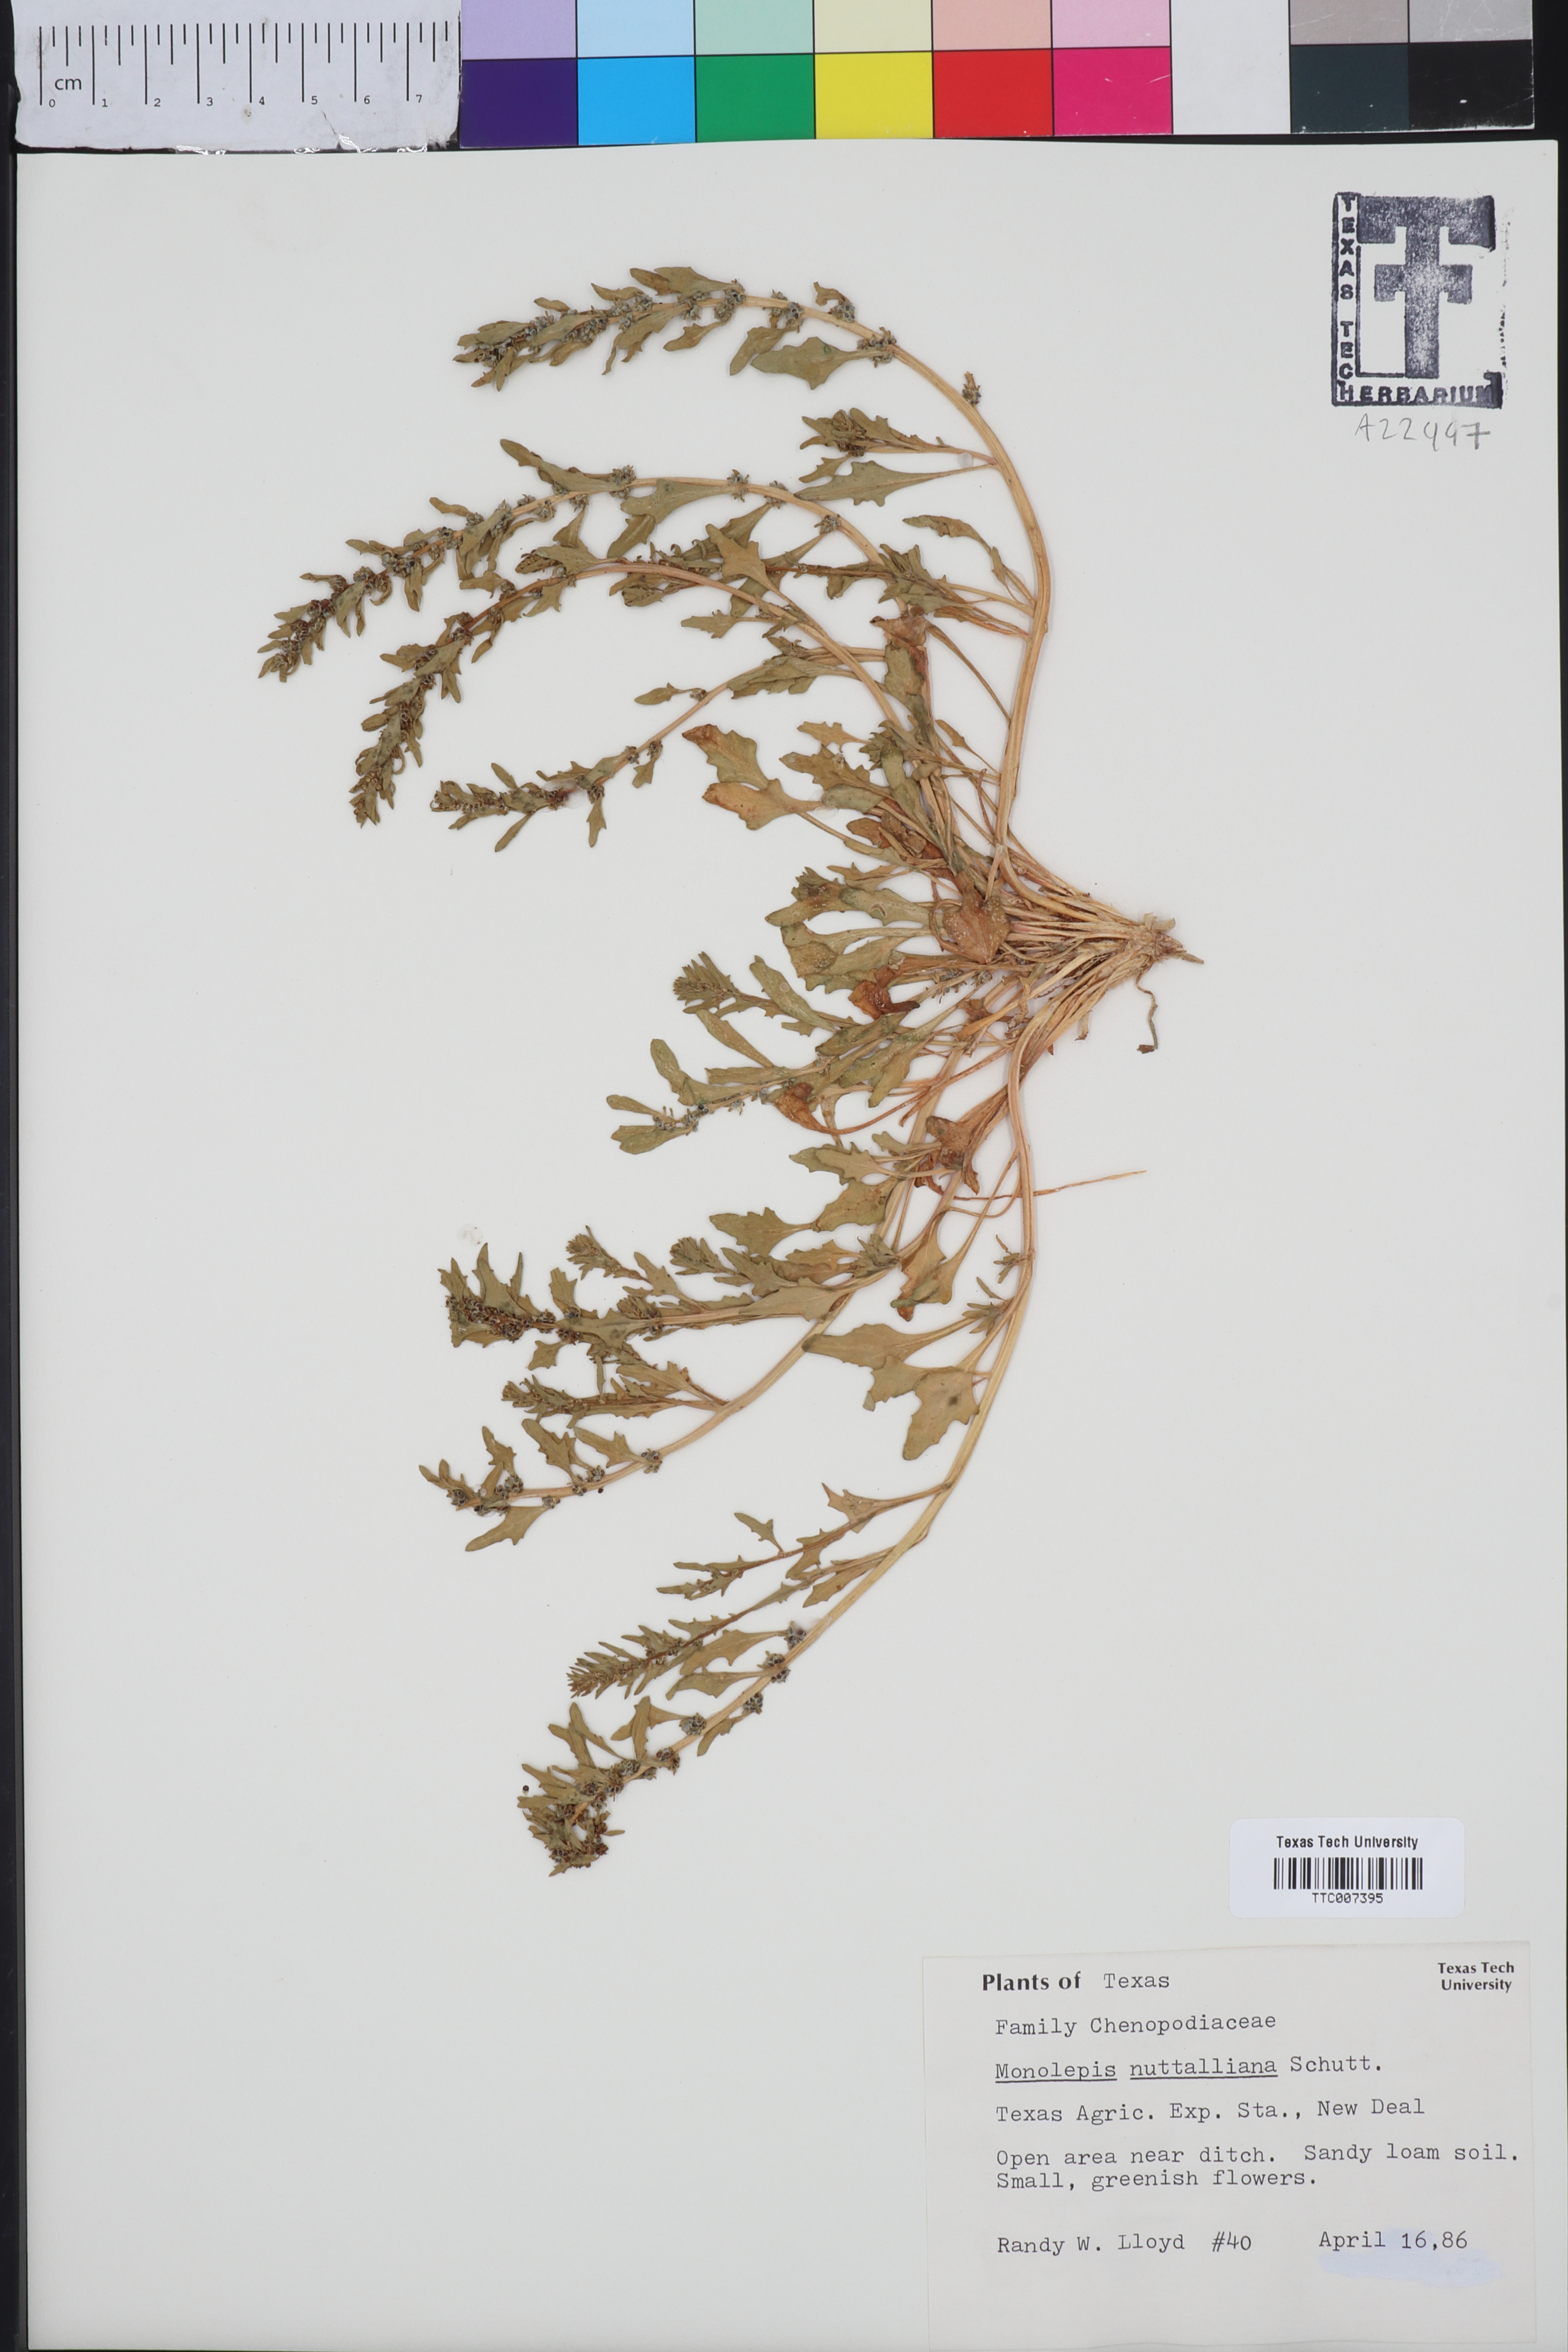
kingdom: Plantae
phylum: Tracheophyta
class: Magnoliopsida
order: Caryophyllales
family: Amaranthaceae
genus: Blitum
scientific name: Blitum
